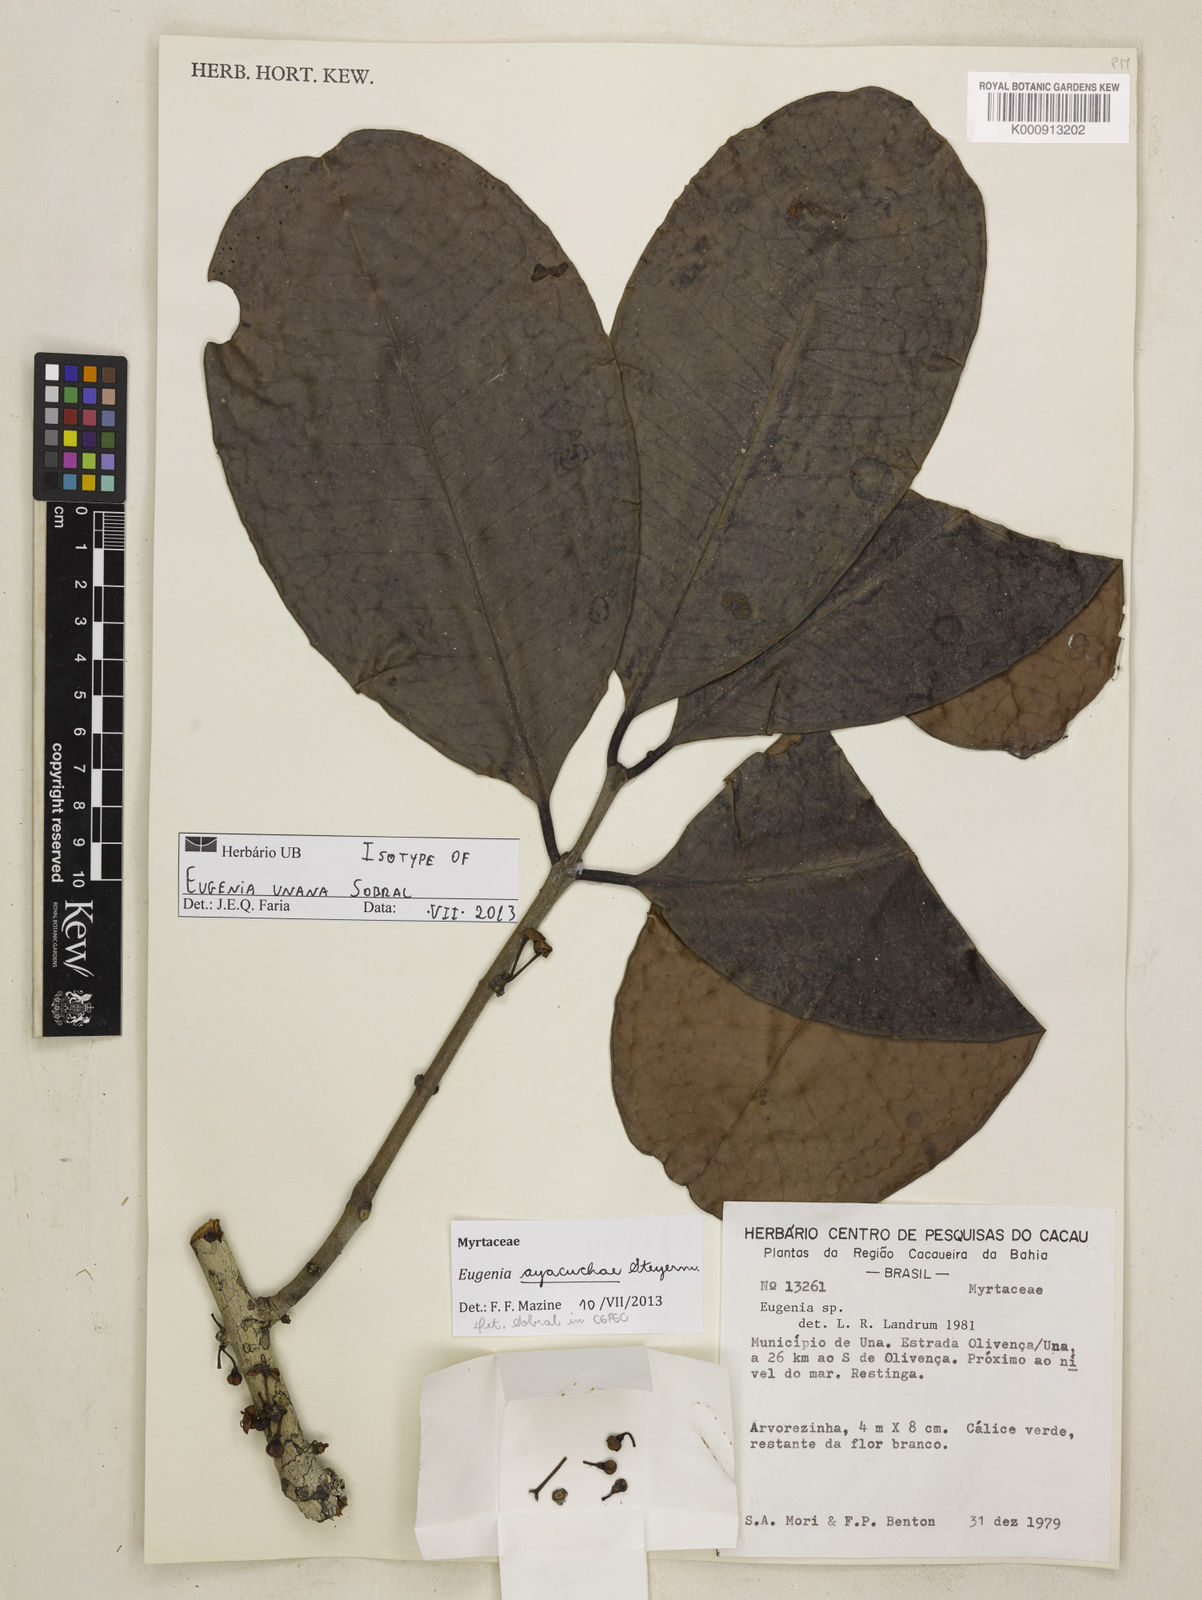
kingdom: Plantae
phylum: Tracheophyta
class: Magnoliopsida
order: Myrtales
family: Myrtaceae
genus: Eugenia
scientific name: Eugenia unana
